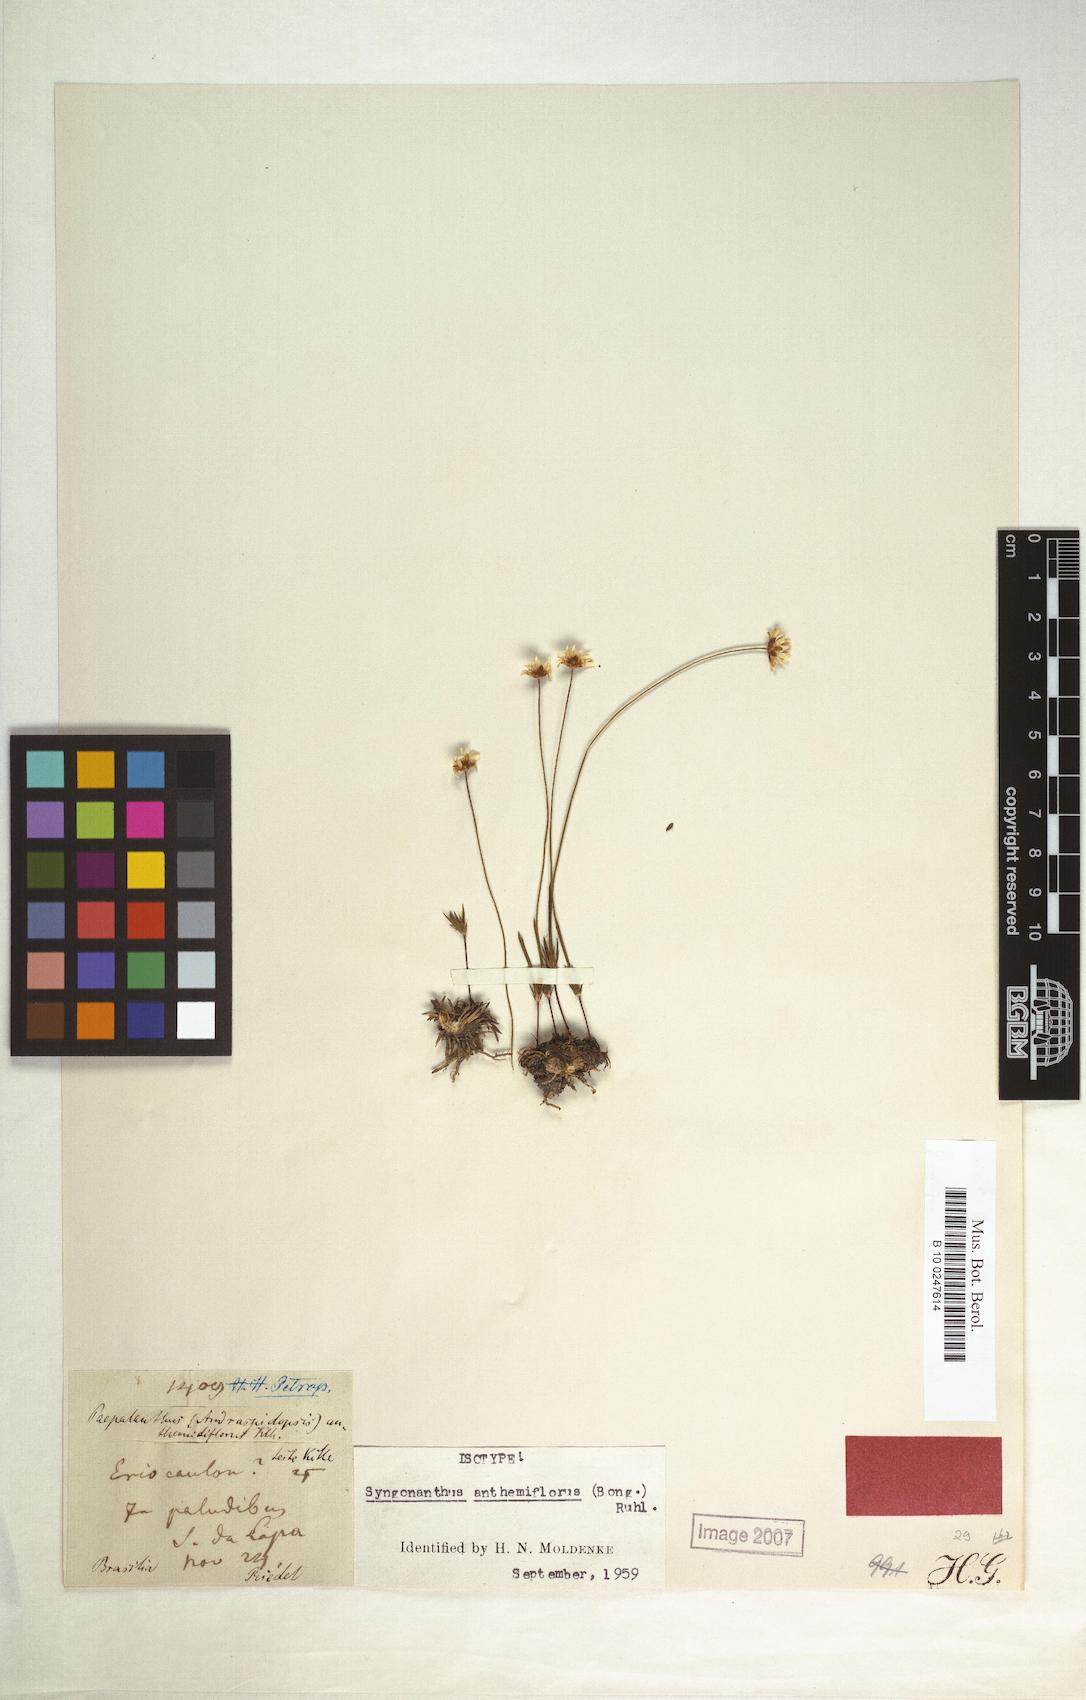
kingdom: Plantae
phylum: Tracheophyta
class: Liliopsida
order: Poales
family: Eriocaulaceae
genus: Syngonanthus
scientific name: Syngonanthus anthemiflorus
